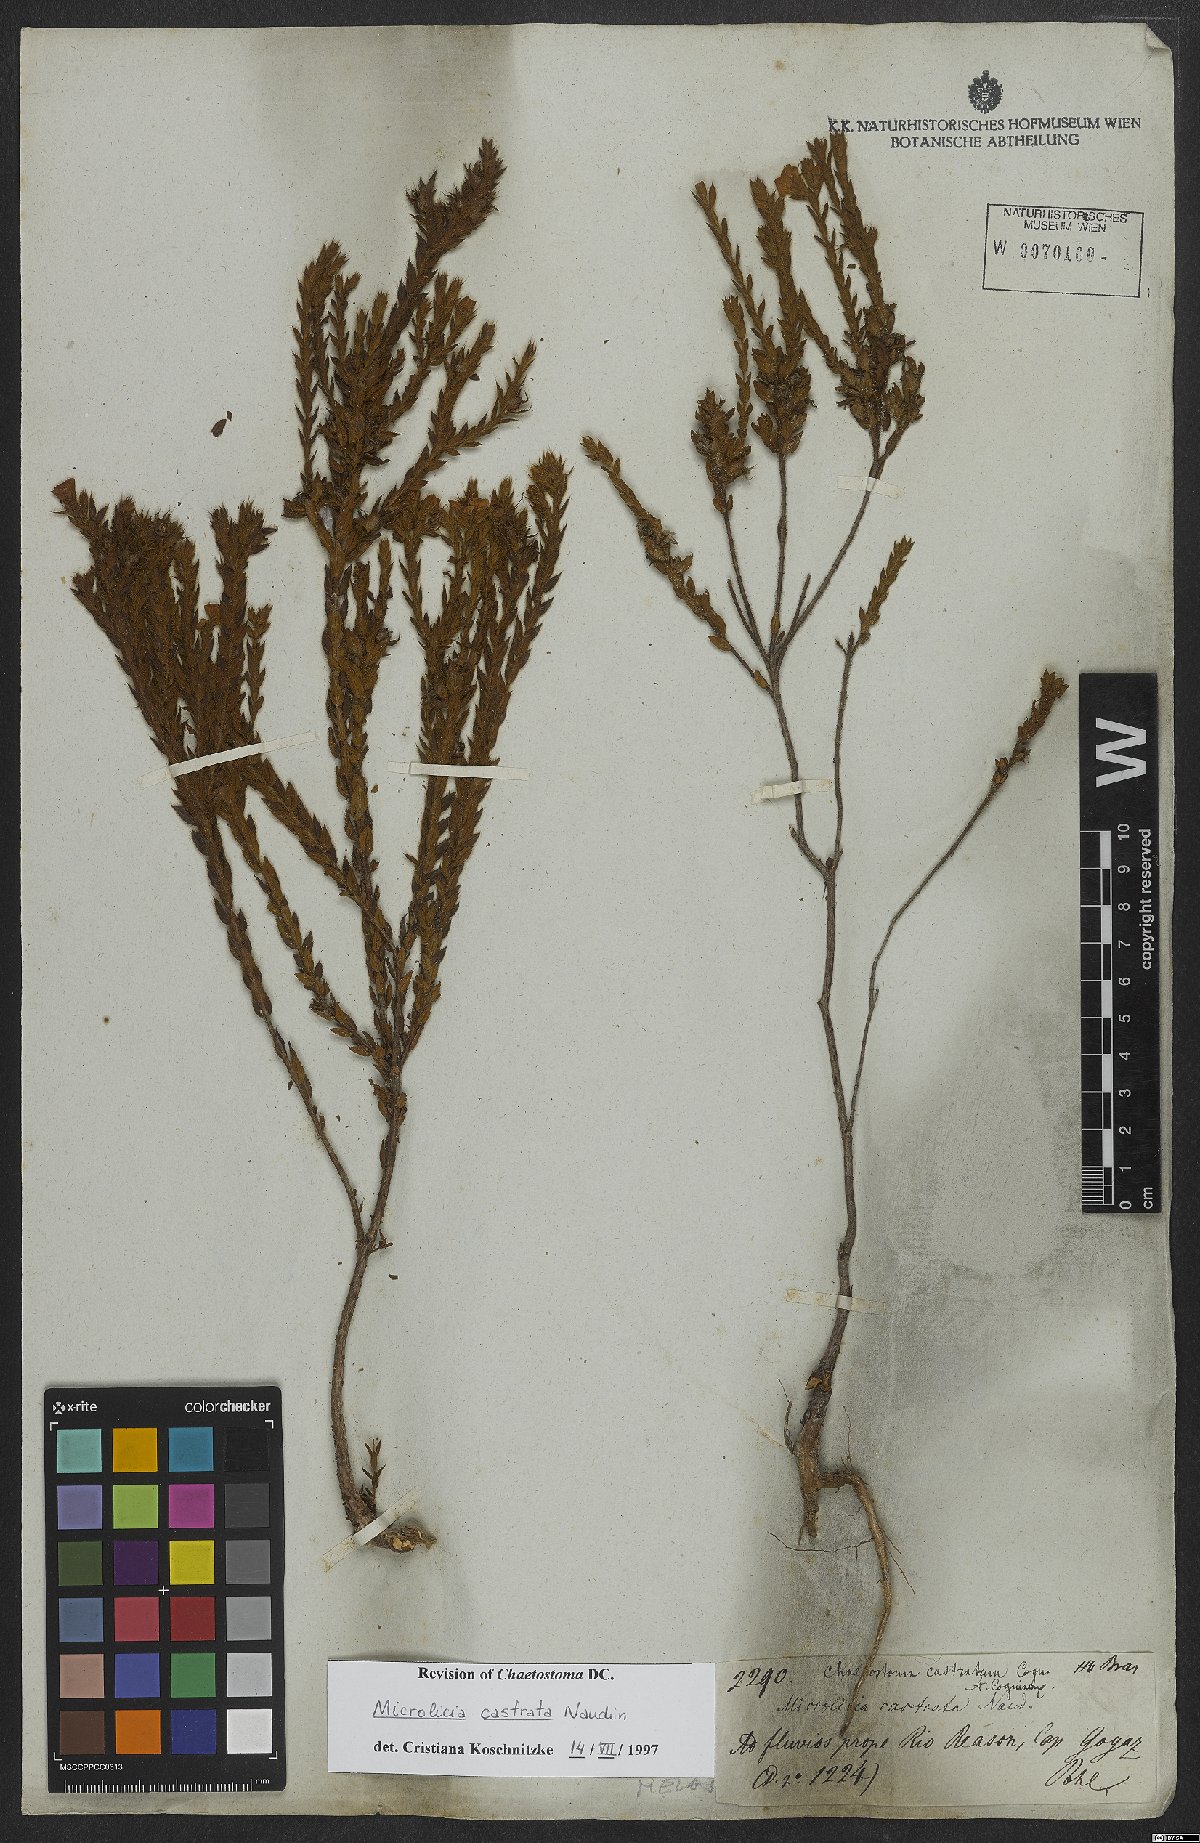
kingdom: Plantae
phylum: Tracheophyta
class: Magnoliopsida
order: Myrtales
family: Melastomataceae
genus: Microlicia
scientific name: Microlicia castrata
